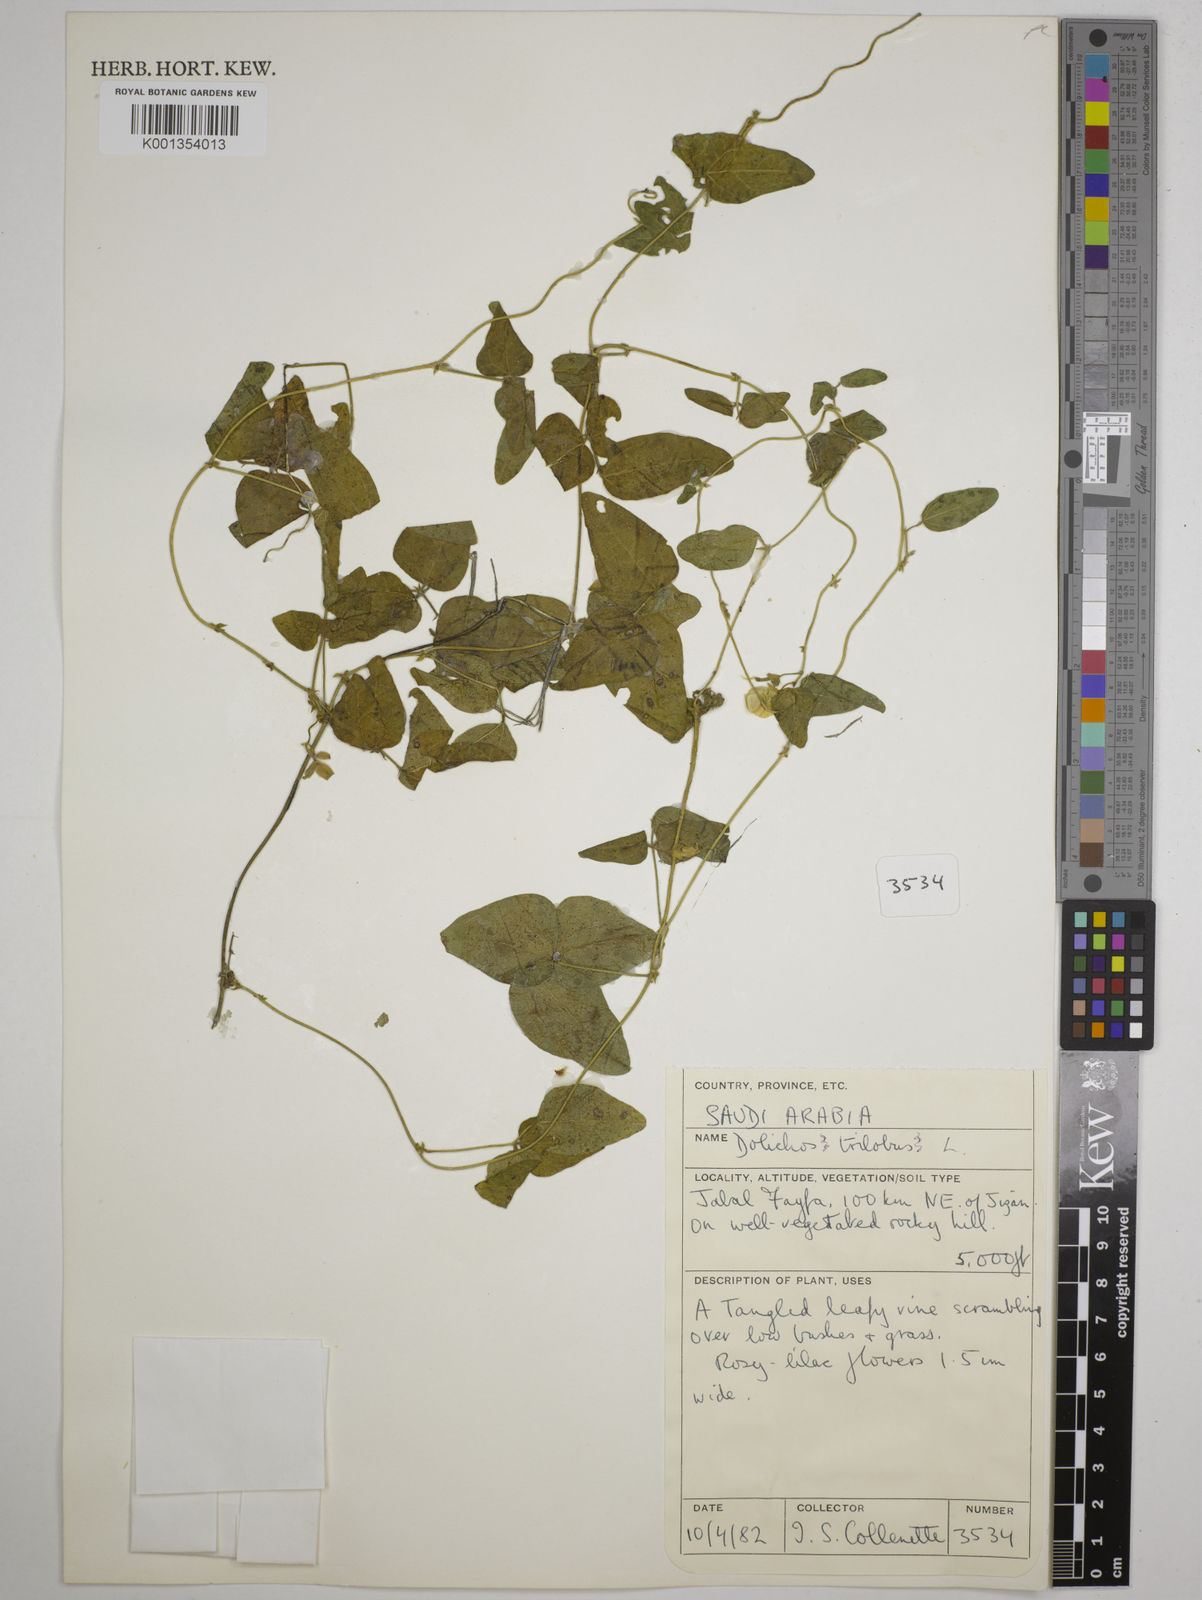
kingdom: Plantae
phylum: Tracheophyta
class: Magnoliopsida
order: Fabales
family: Fabaceae
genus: Dolichos
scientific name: Dolichos
